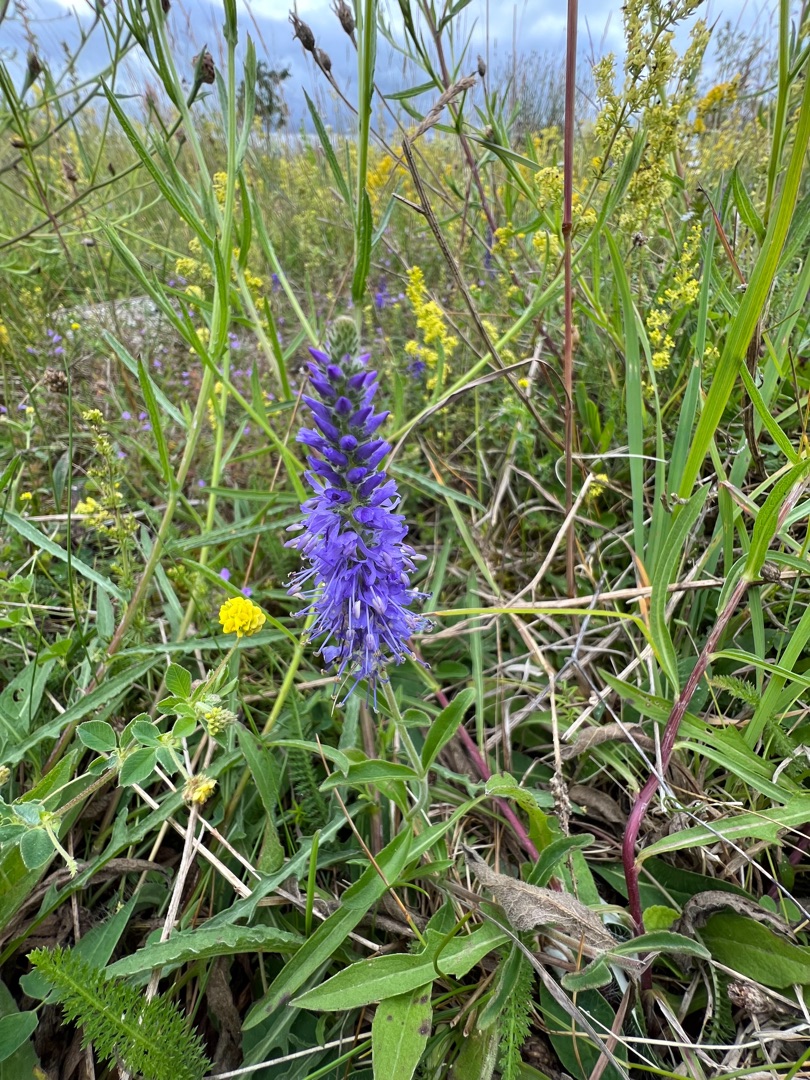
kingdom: Plantae
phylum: Tracheophyta
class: Magnoliopsida
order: Lamiales
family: Plantaginaceae
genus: Veronica
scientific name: Veronica spicata
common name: Aks-ærenpris
